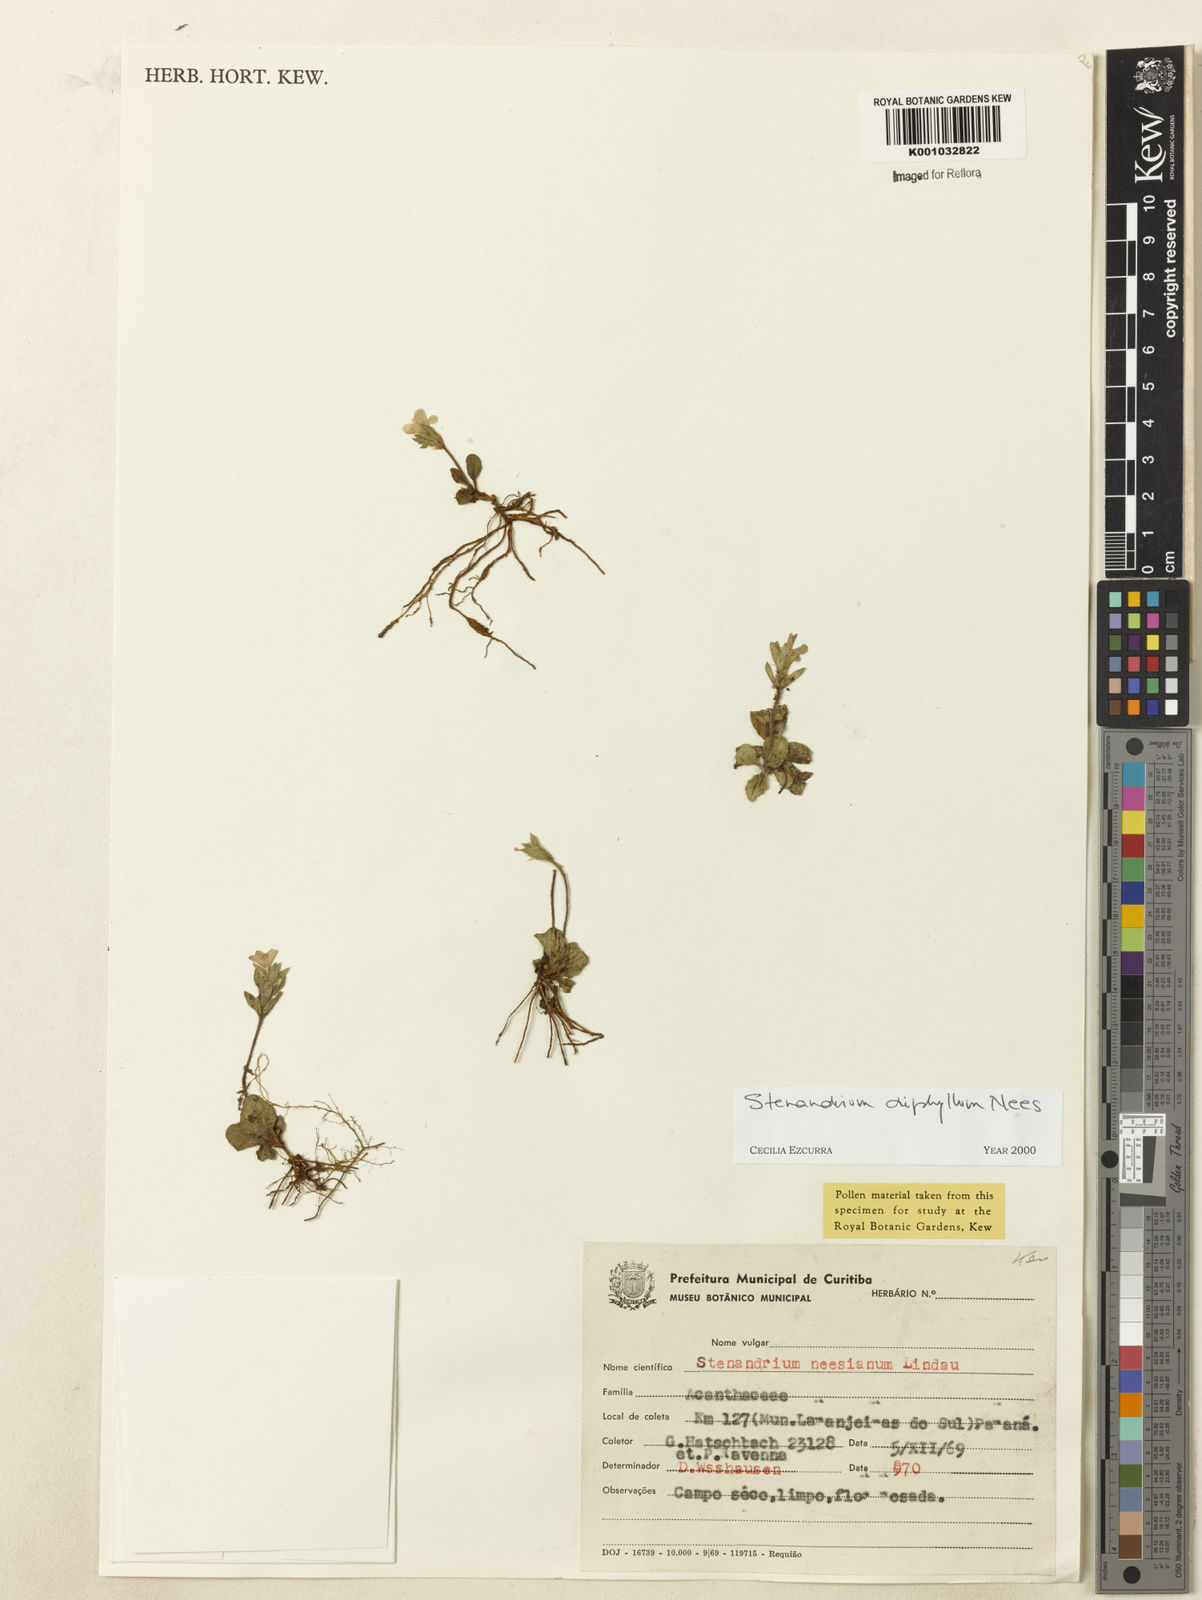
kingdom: Plantae
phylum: Tracheophyta
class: Magnoliopsida
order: Lamiales
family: Acanthaceae
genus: Stenandrium
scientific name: Stenandrium diphyllum
